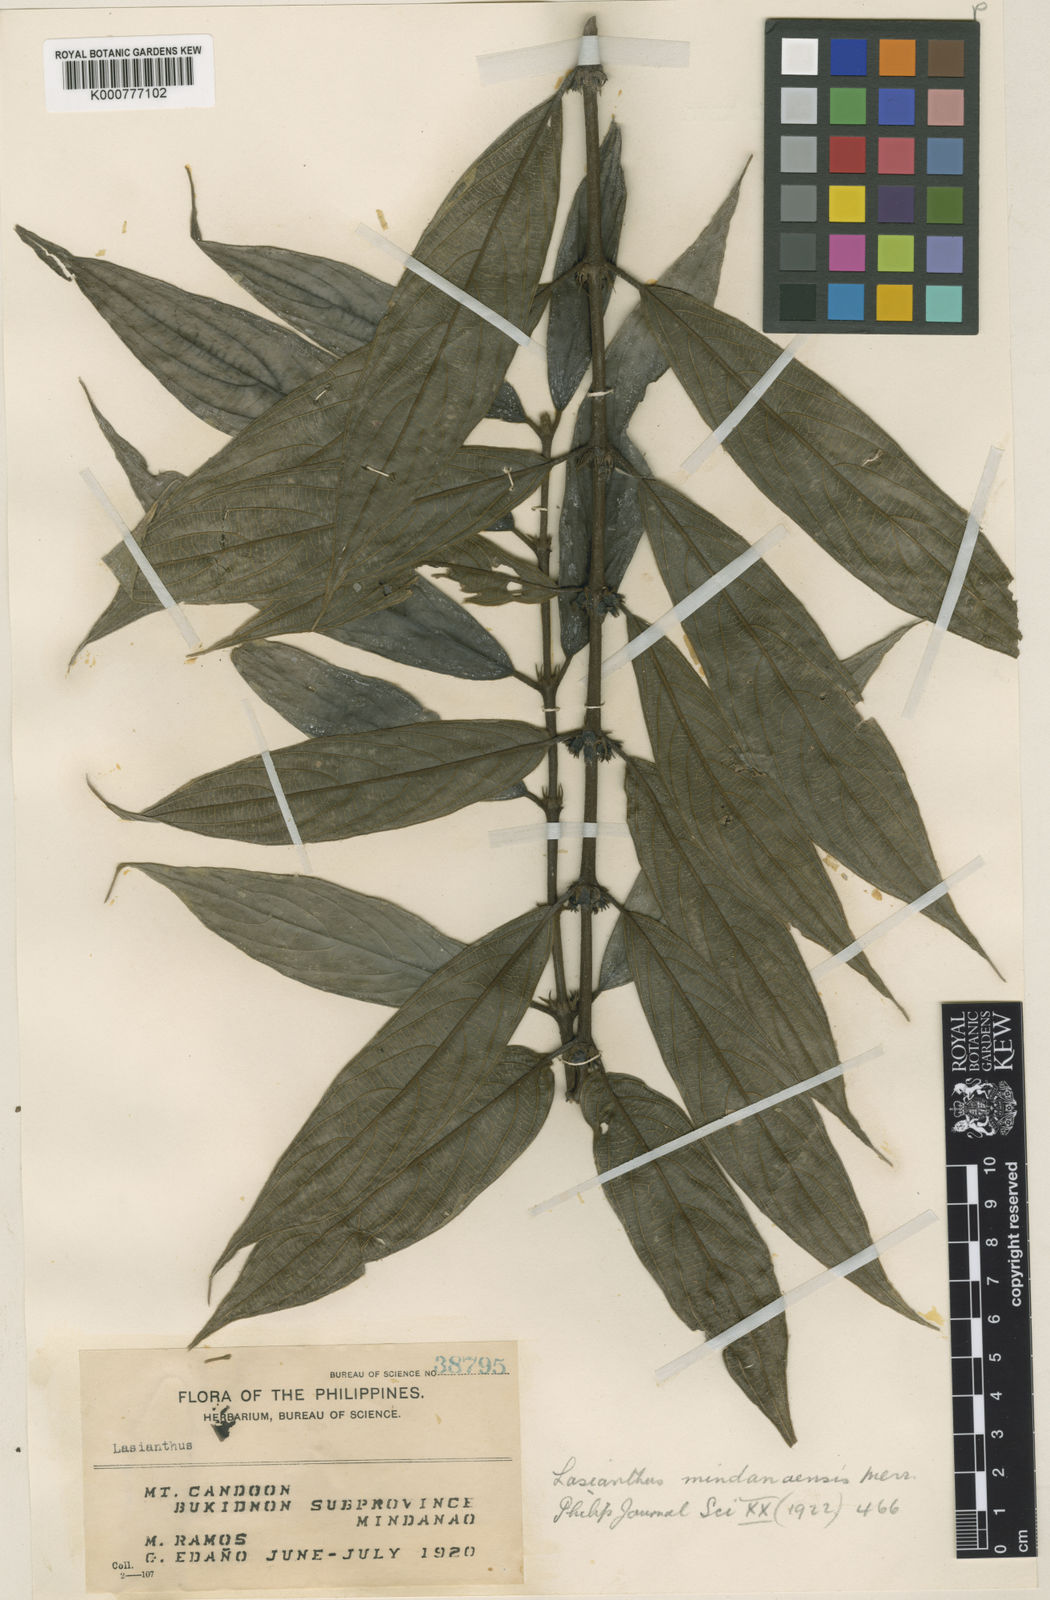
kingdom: Plantae
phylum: Tracheophyta
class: Magnoliopsida
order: Gentianales
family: Rubiaceae
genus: Lasianthus
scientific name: Lasianthus sikkimensis
